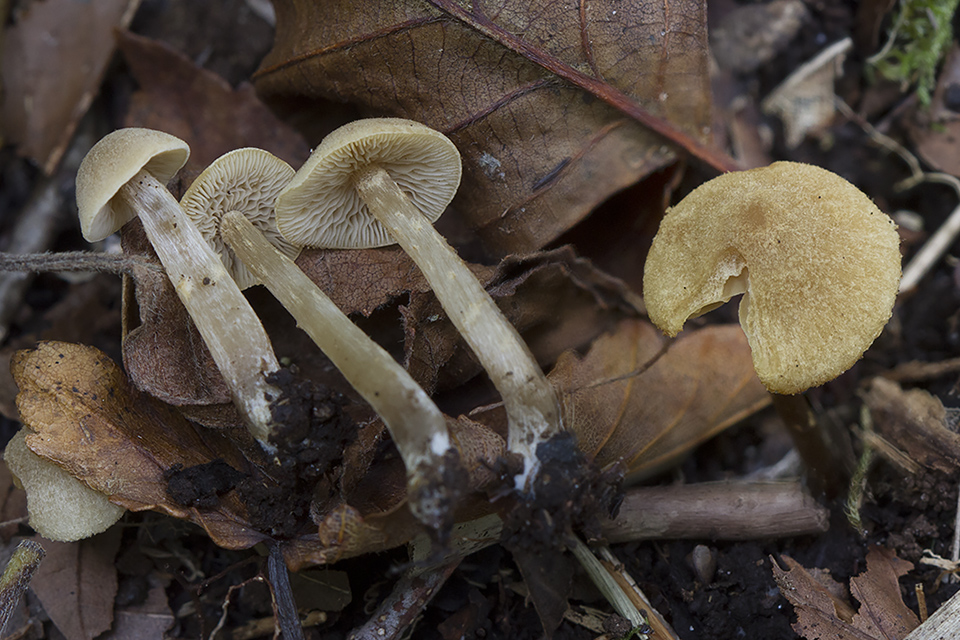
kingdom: Fungi
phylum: Basidiomycota
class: Agaricomycetes
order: Agaricales
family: Hymenogastraceae
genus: Naucoria
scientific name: Naucoria escharioides
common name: lys elle-knaphat
